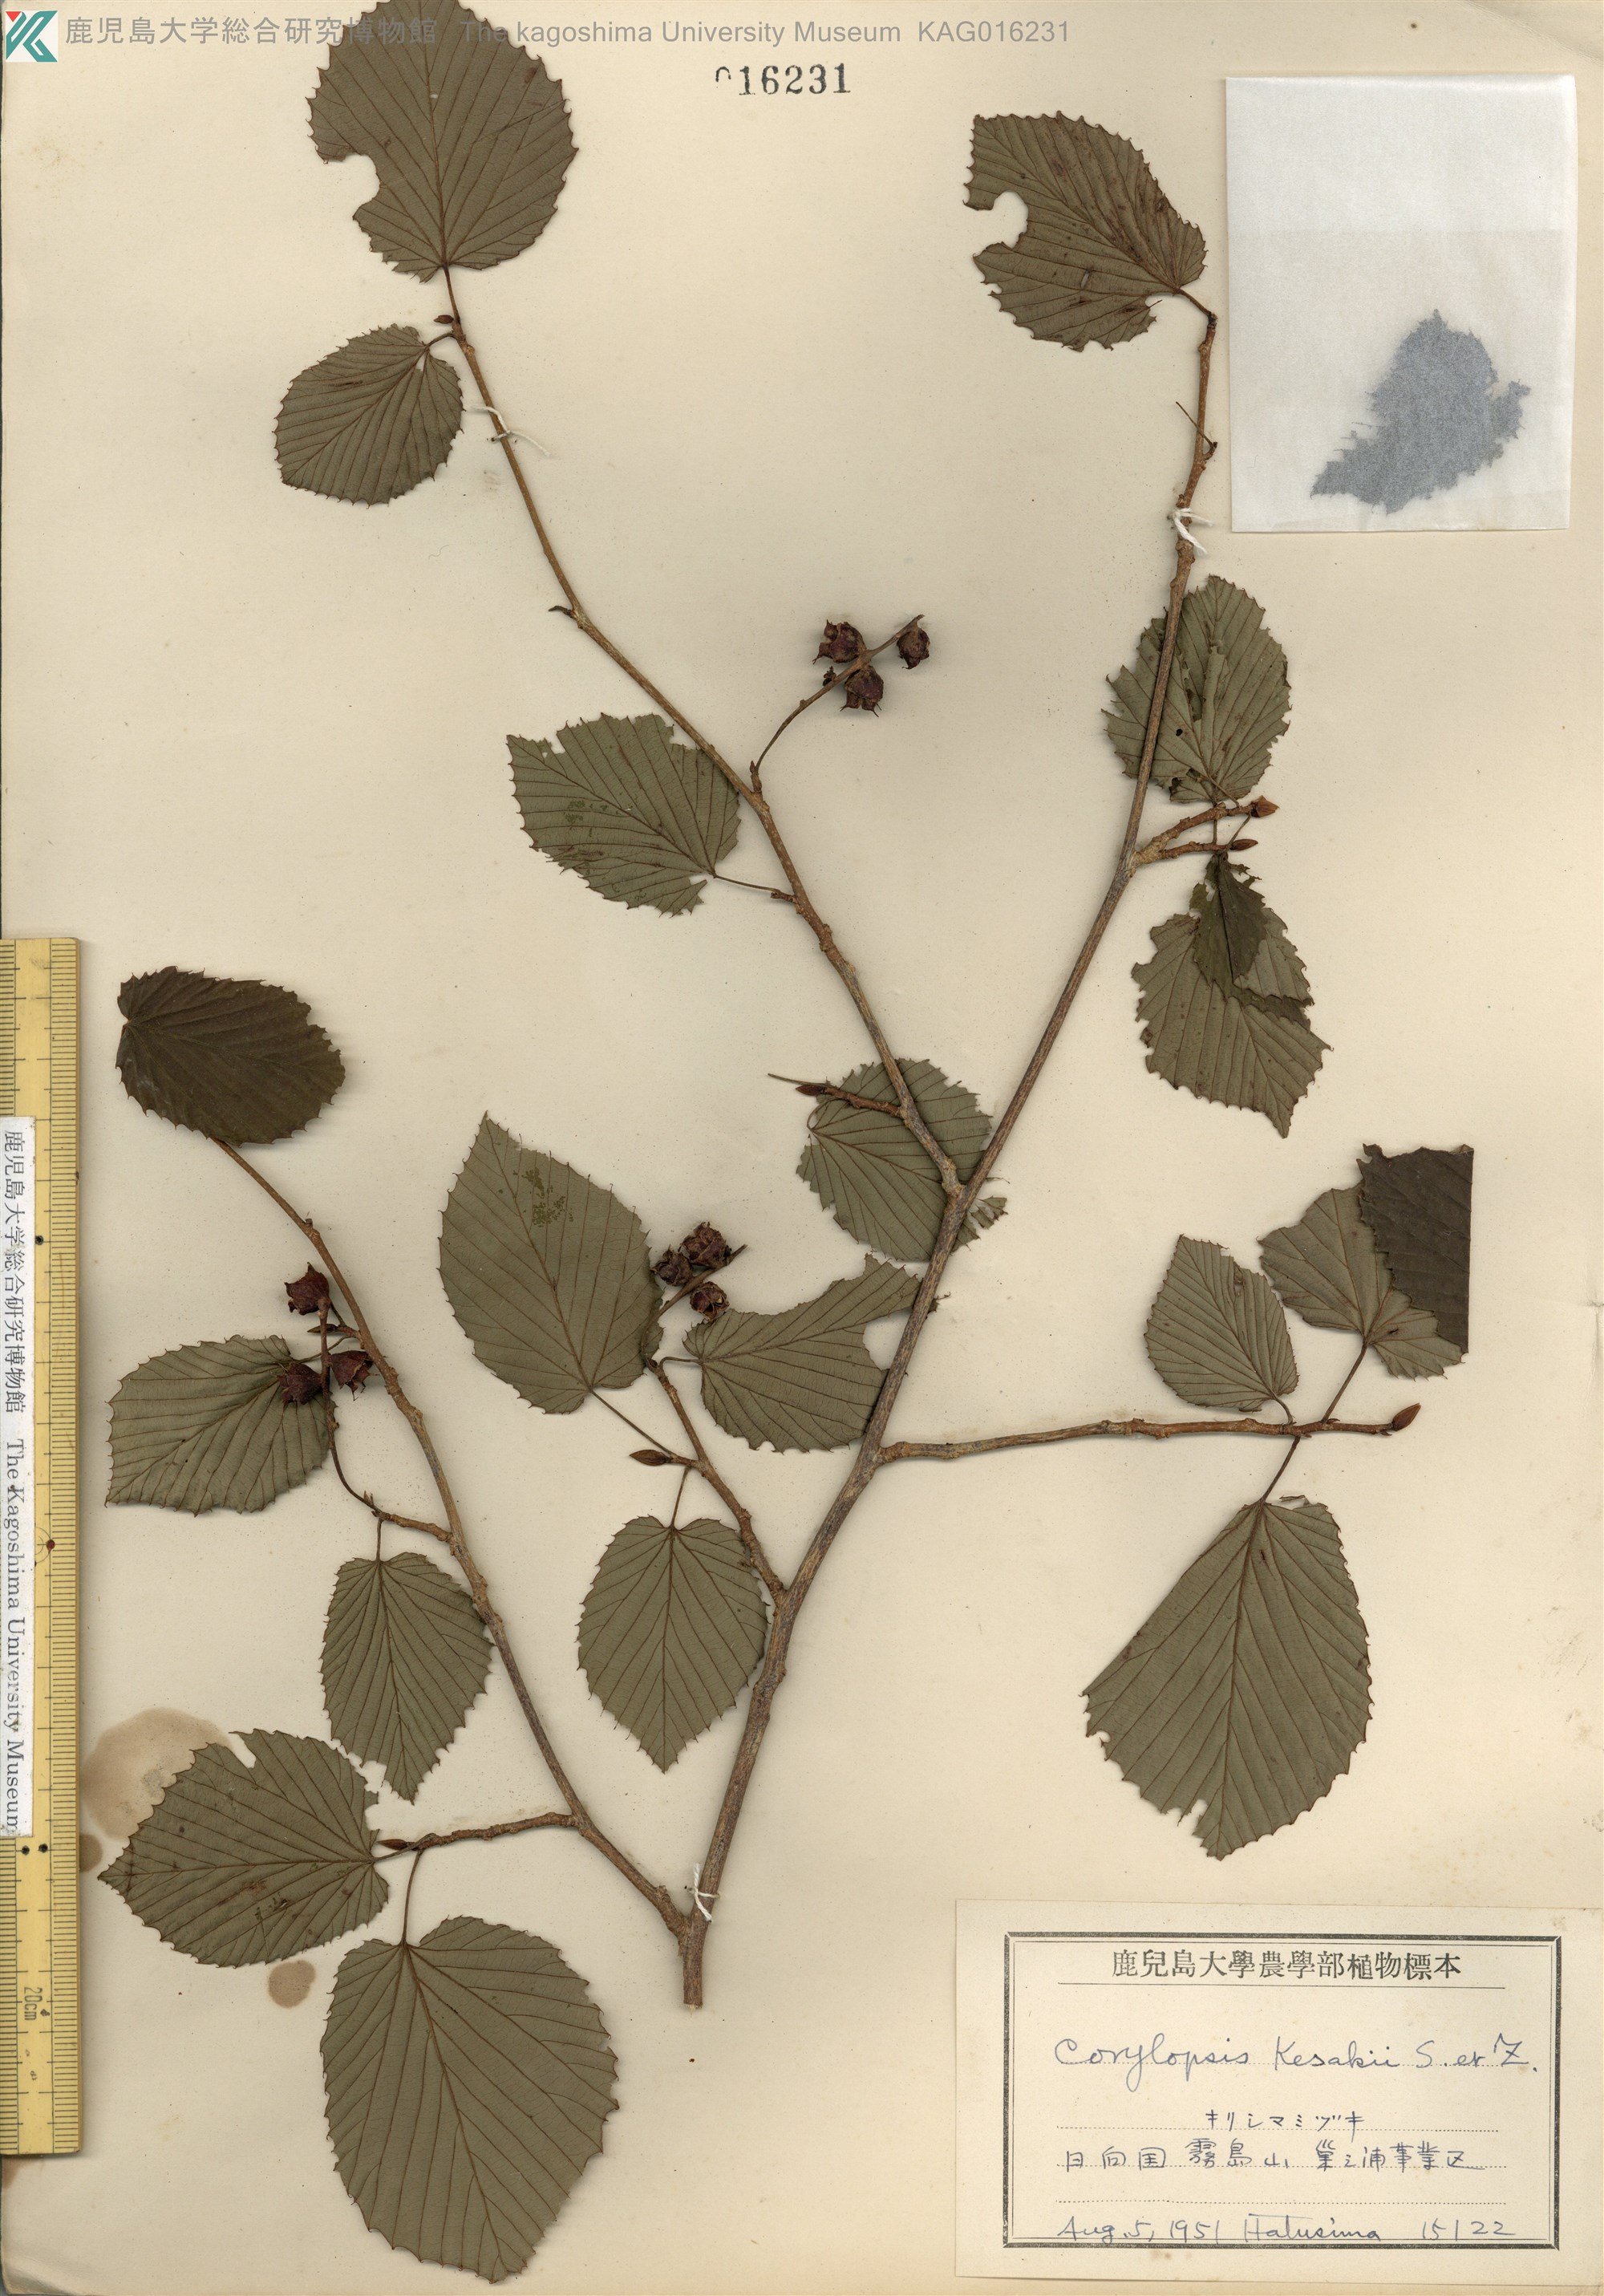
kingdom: Plantae
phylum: Tracheophyta
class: Magnoliopsida
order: Saxifragales
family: Hamamelidaceae
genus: Corylopsis
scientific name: Corylopsis glabrescens
